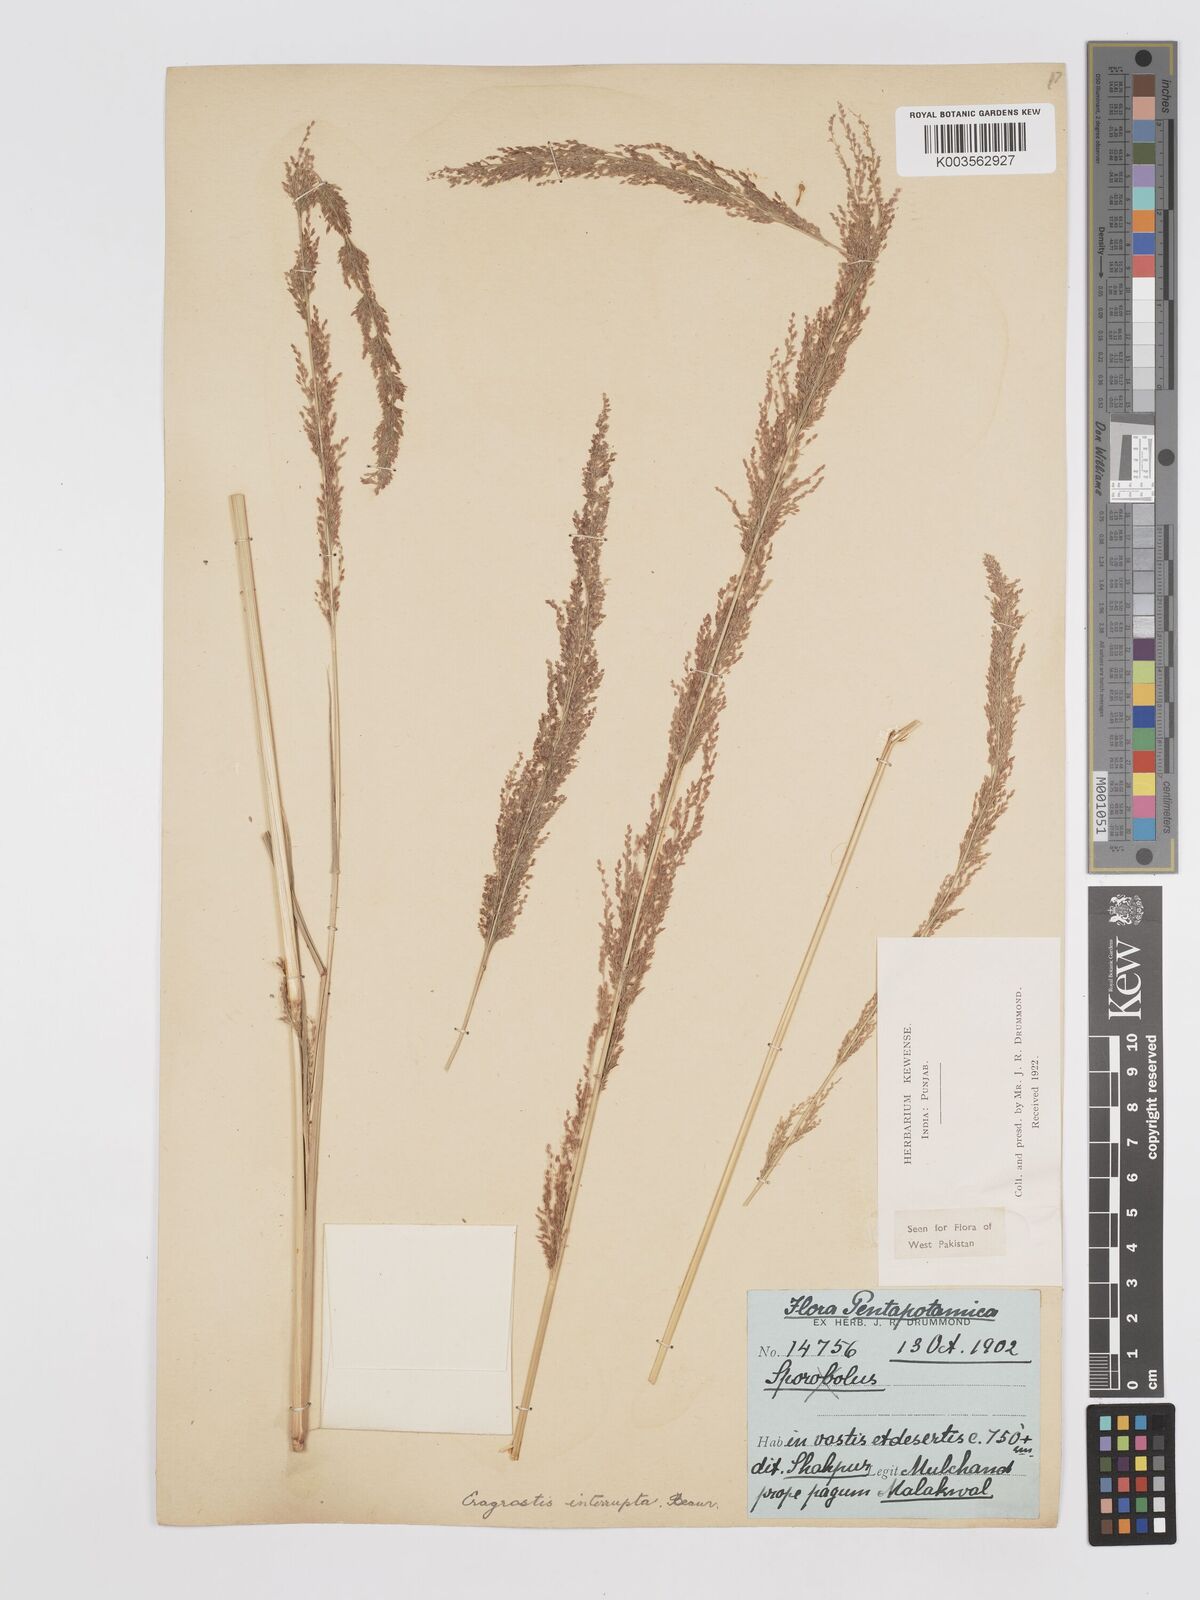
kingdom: Plantae
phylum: Tracheophyta
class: Liliopsida
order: Poales
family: Poaceae
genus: Eragrostis
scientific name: Eragrostis japonica
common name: Pond lovegrass
